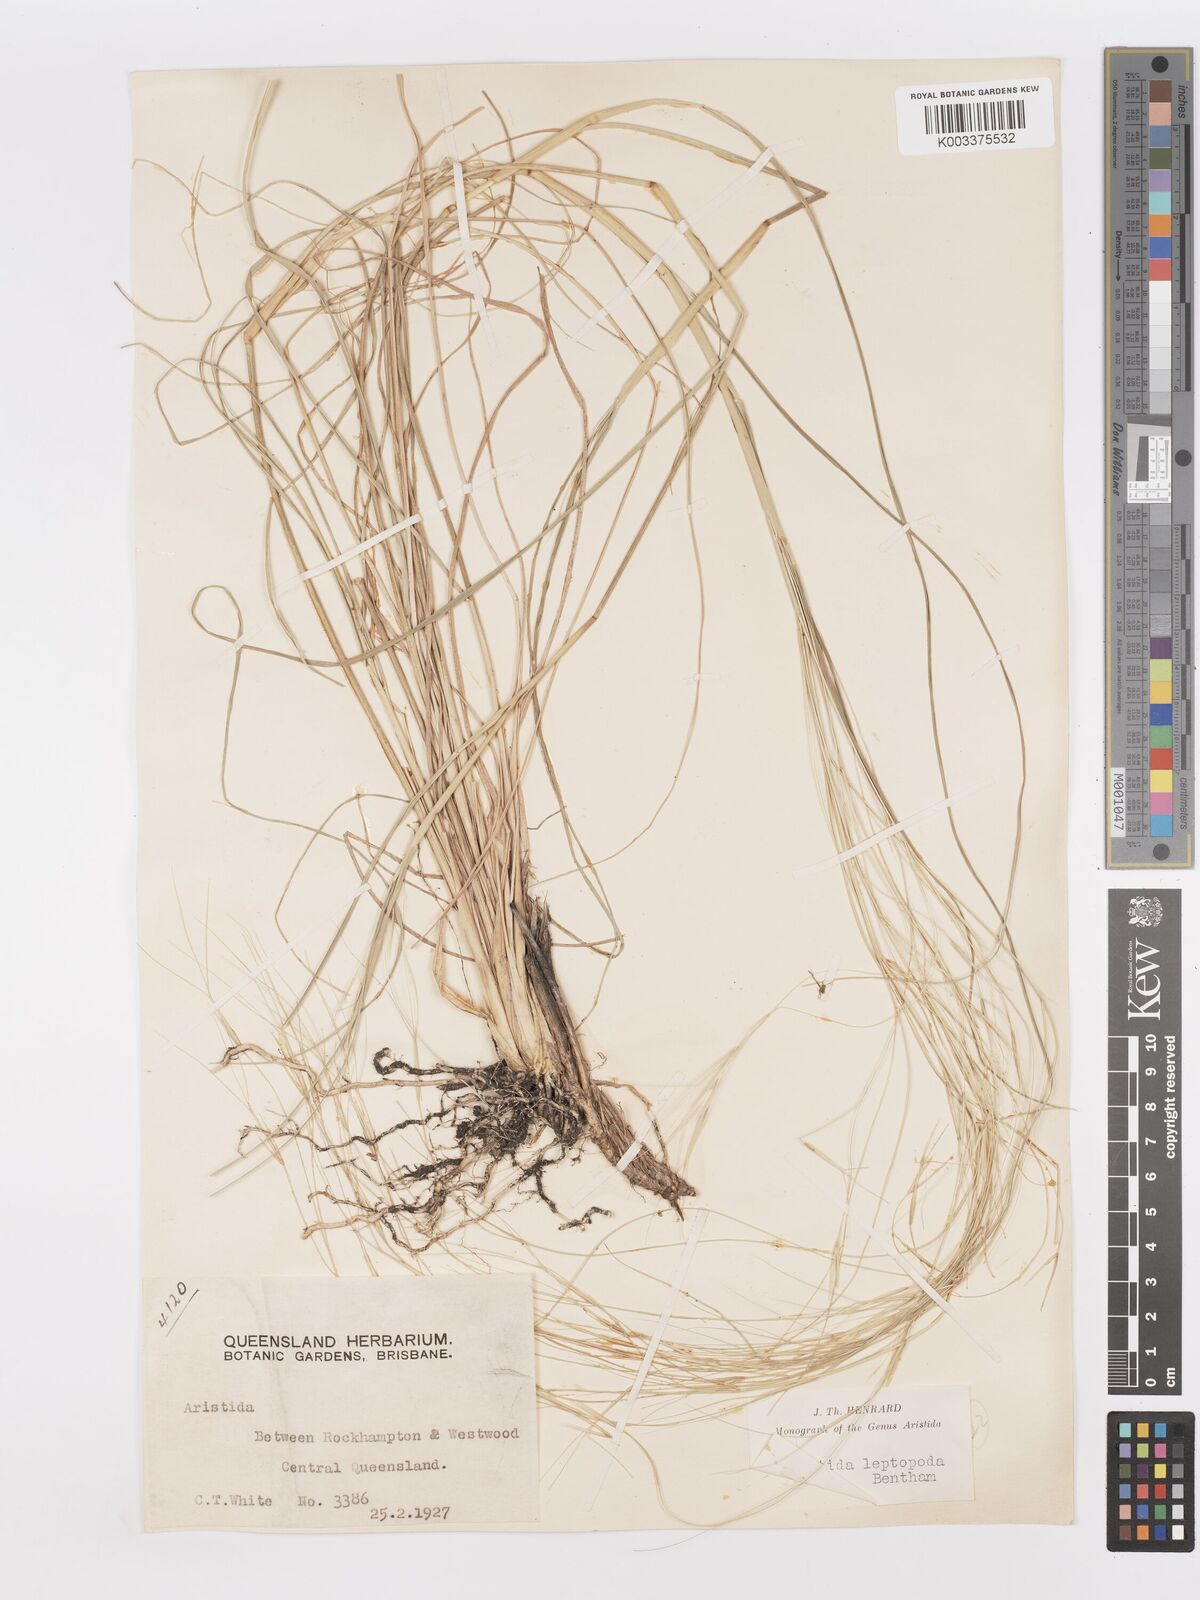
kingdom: Plantae
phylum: Tracheophyta
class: Liliopsida
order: Poales
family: Poaceae
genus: Aristida
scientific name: Aristida leptopoda
